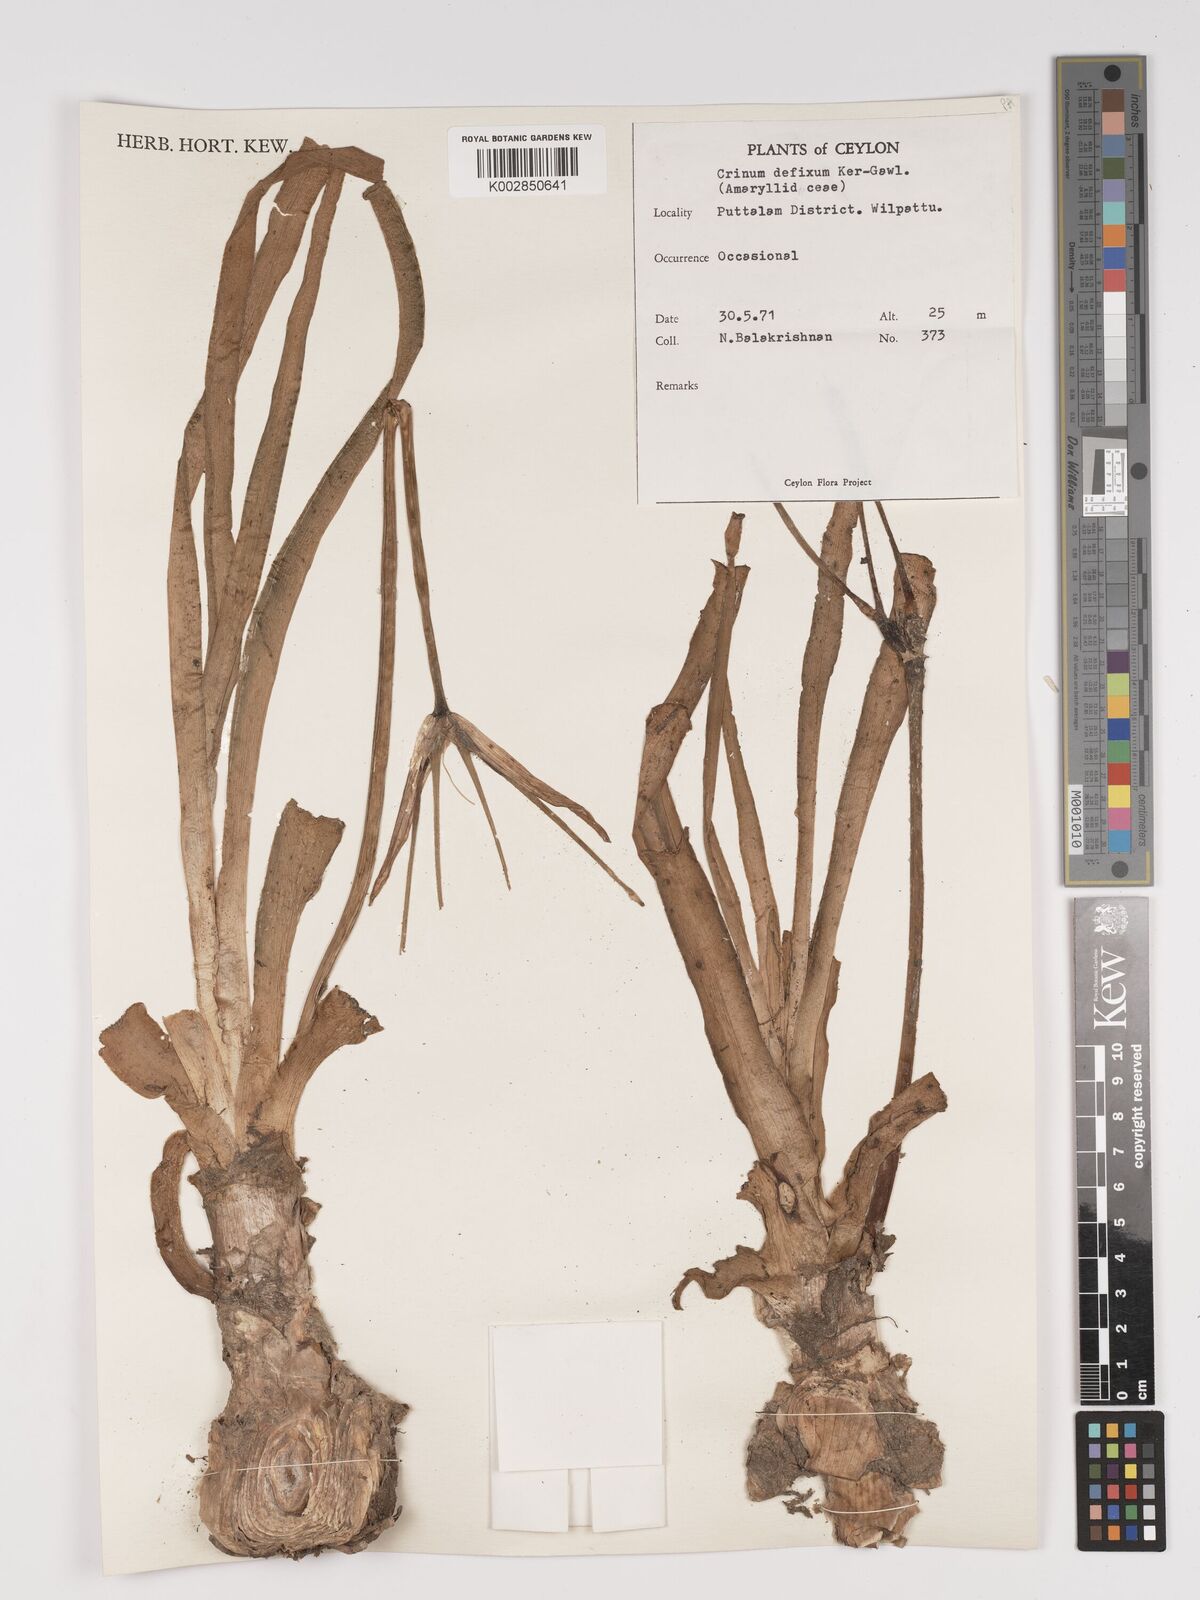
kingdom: Plantae
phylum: Tracheophyta
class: Liliopsida
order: Asparagales
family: Amaryllidaceae
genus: Crinum
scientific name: Crinum defixum
